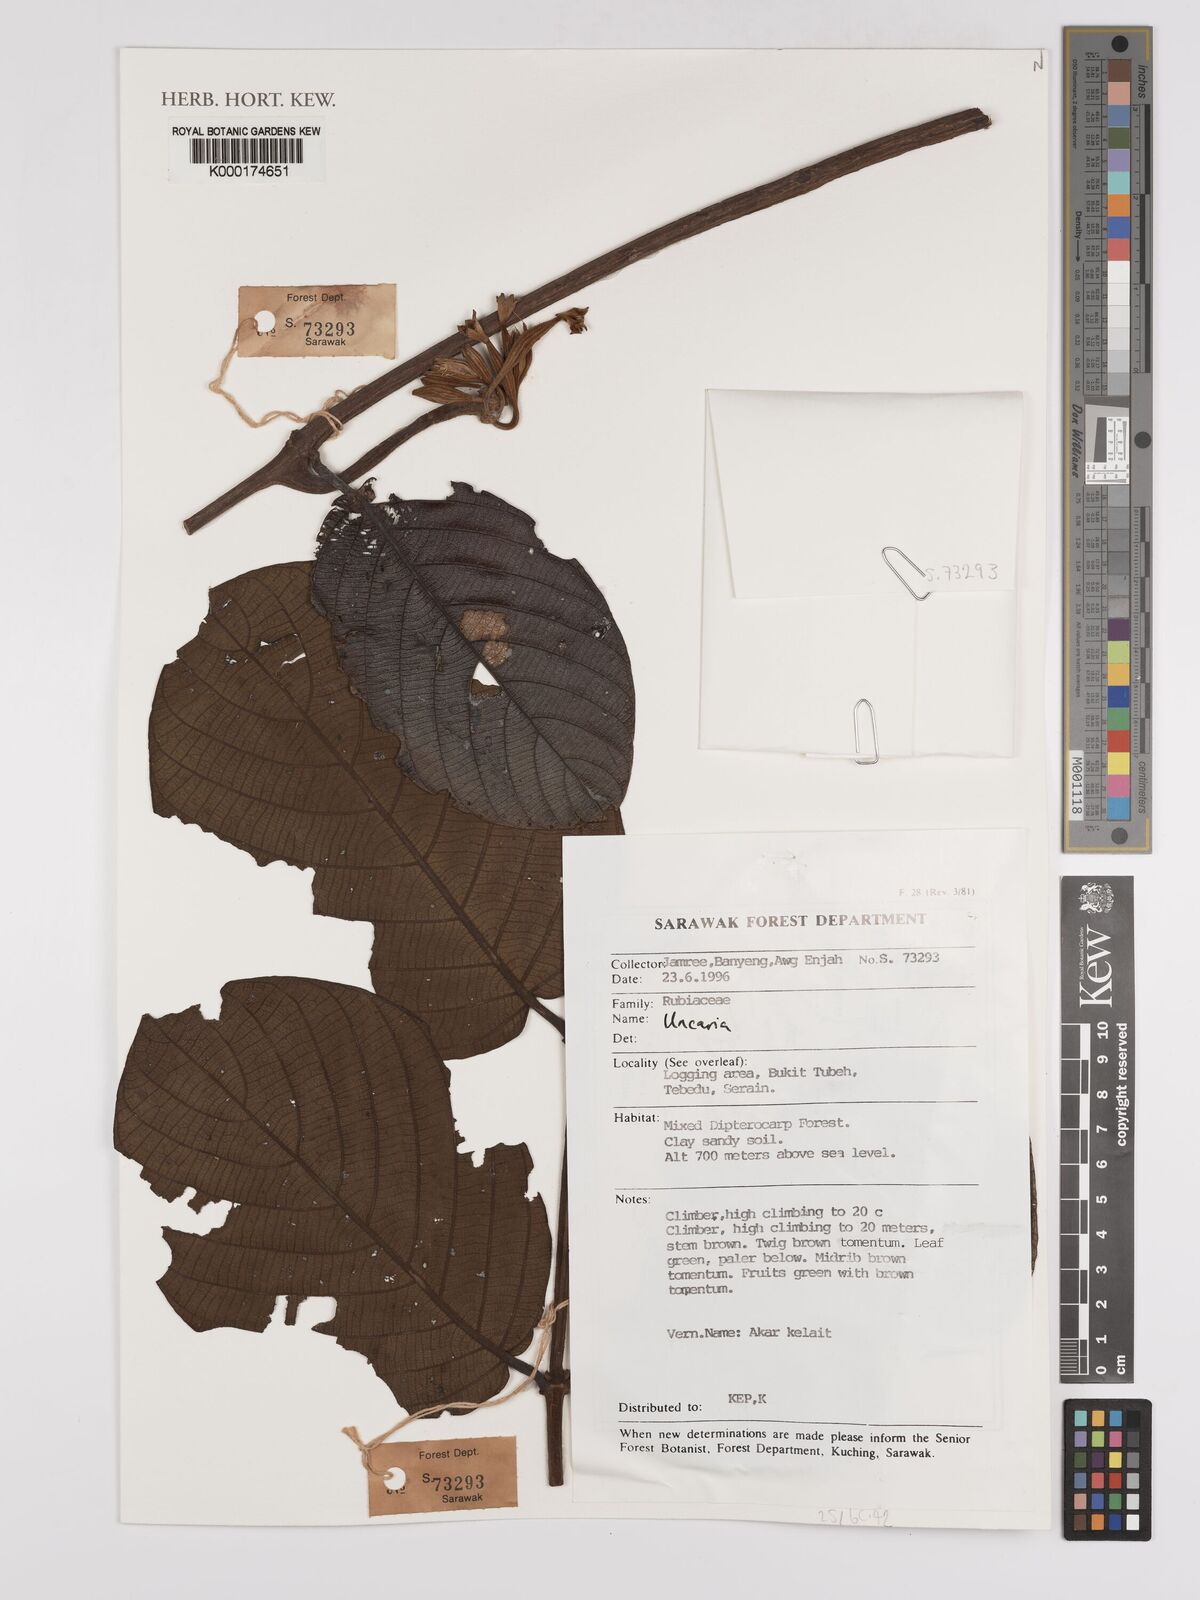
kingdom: Plantae
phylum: Tracheophyta
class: Magnoliopsida
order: Gentianales
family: Rubiaceae
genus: Uncaria
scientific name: Uncaria
